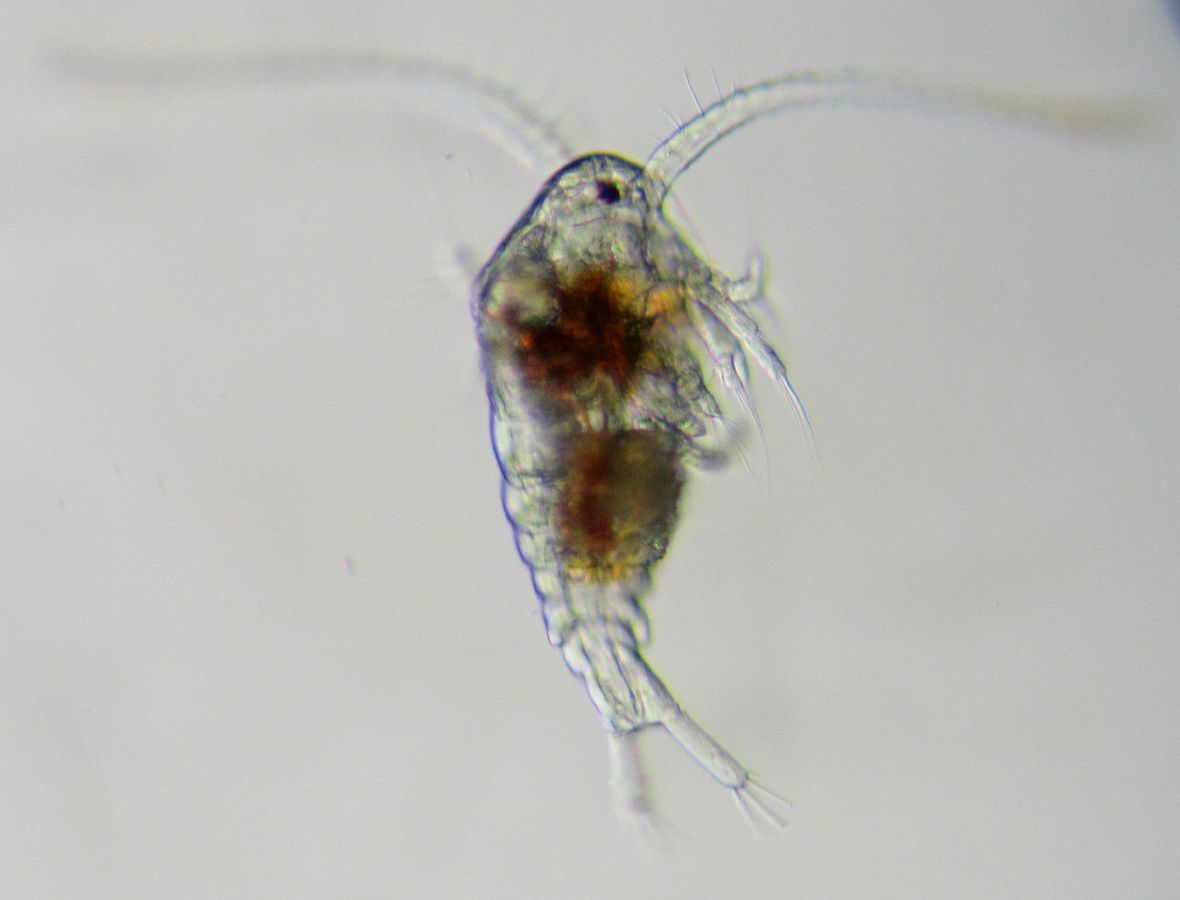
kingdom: Animalia
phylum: Arthropoda
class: Copepoda
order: Calanoida
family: Temoridae
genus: Temora
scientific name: Temora longicornis
